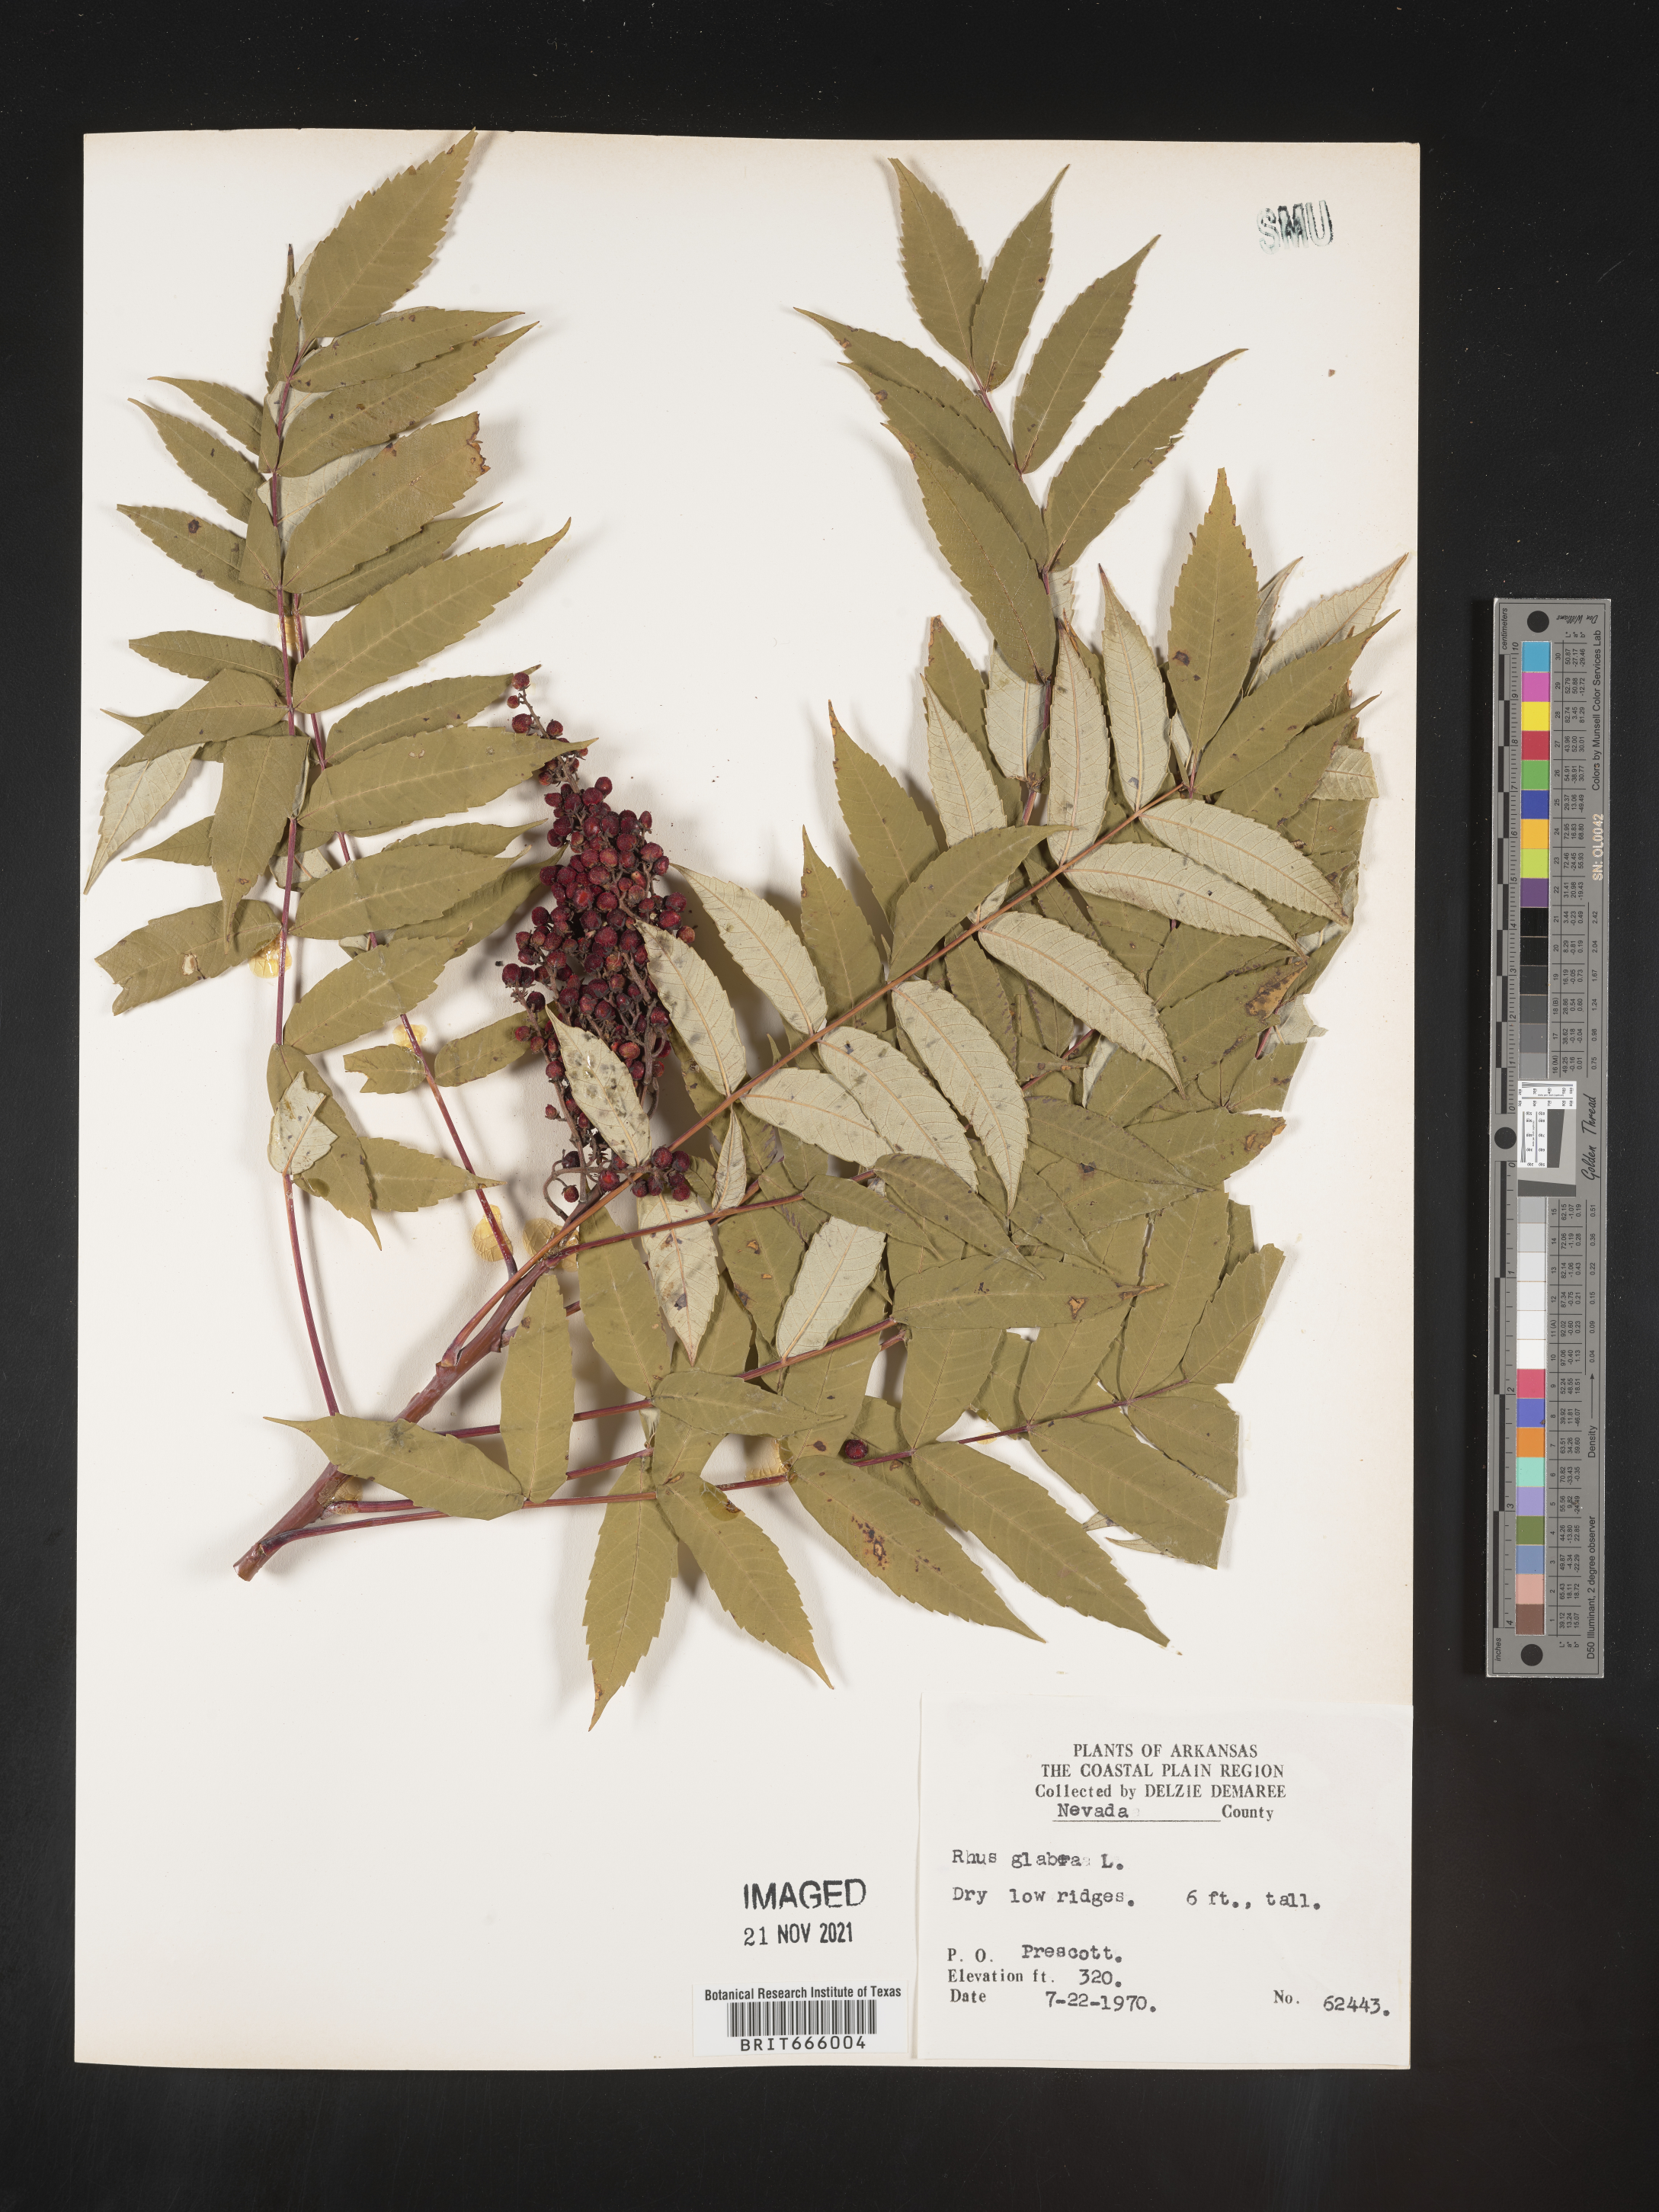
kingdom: Plantae
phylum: Tracheophyta
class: Magnoliopsida
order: Sapindales
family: Anacardiaceae
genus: Rhus
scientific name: Rhus glabra
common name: Scarlet sumac
